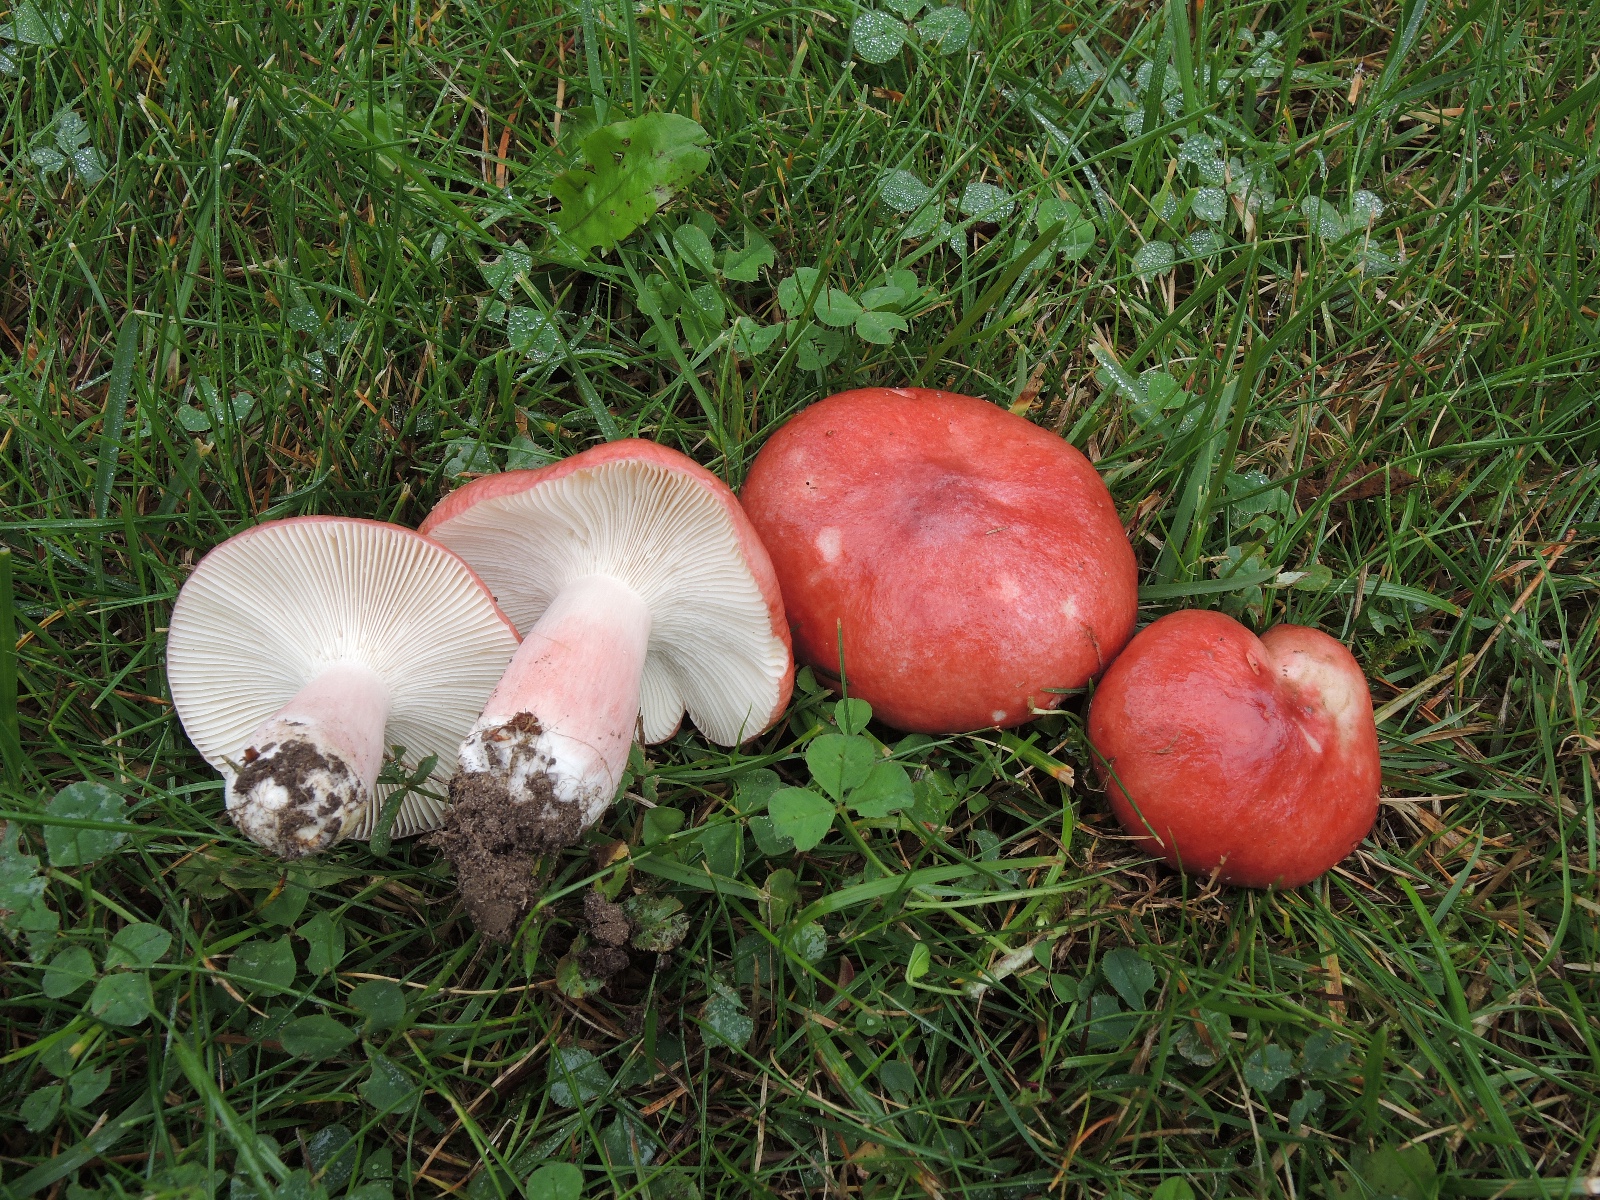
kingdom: Fungi
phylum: Basidiomycota
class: Agaricomycetes
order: Russulales
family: Russulaceae
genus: Russula
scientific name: Russula sanguinea
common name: blodrød skørhat
